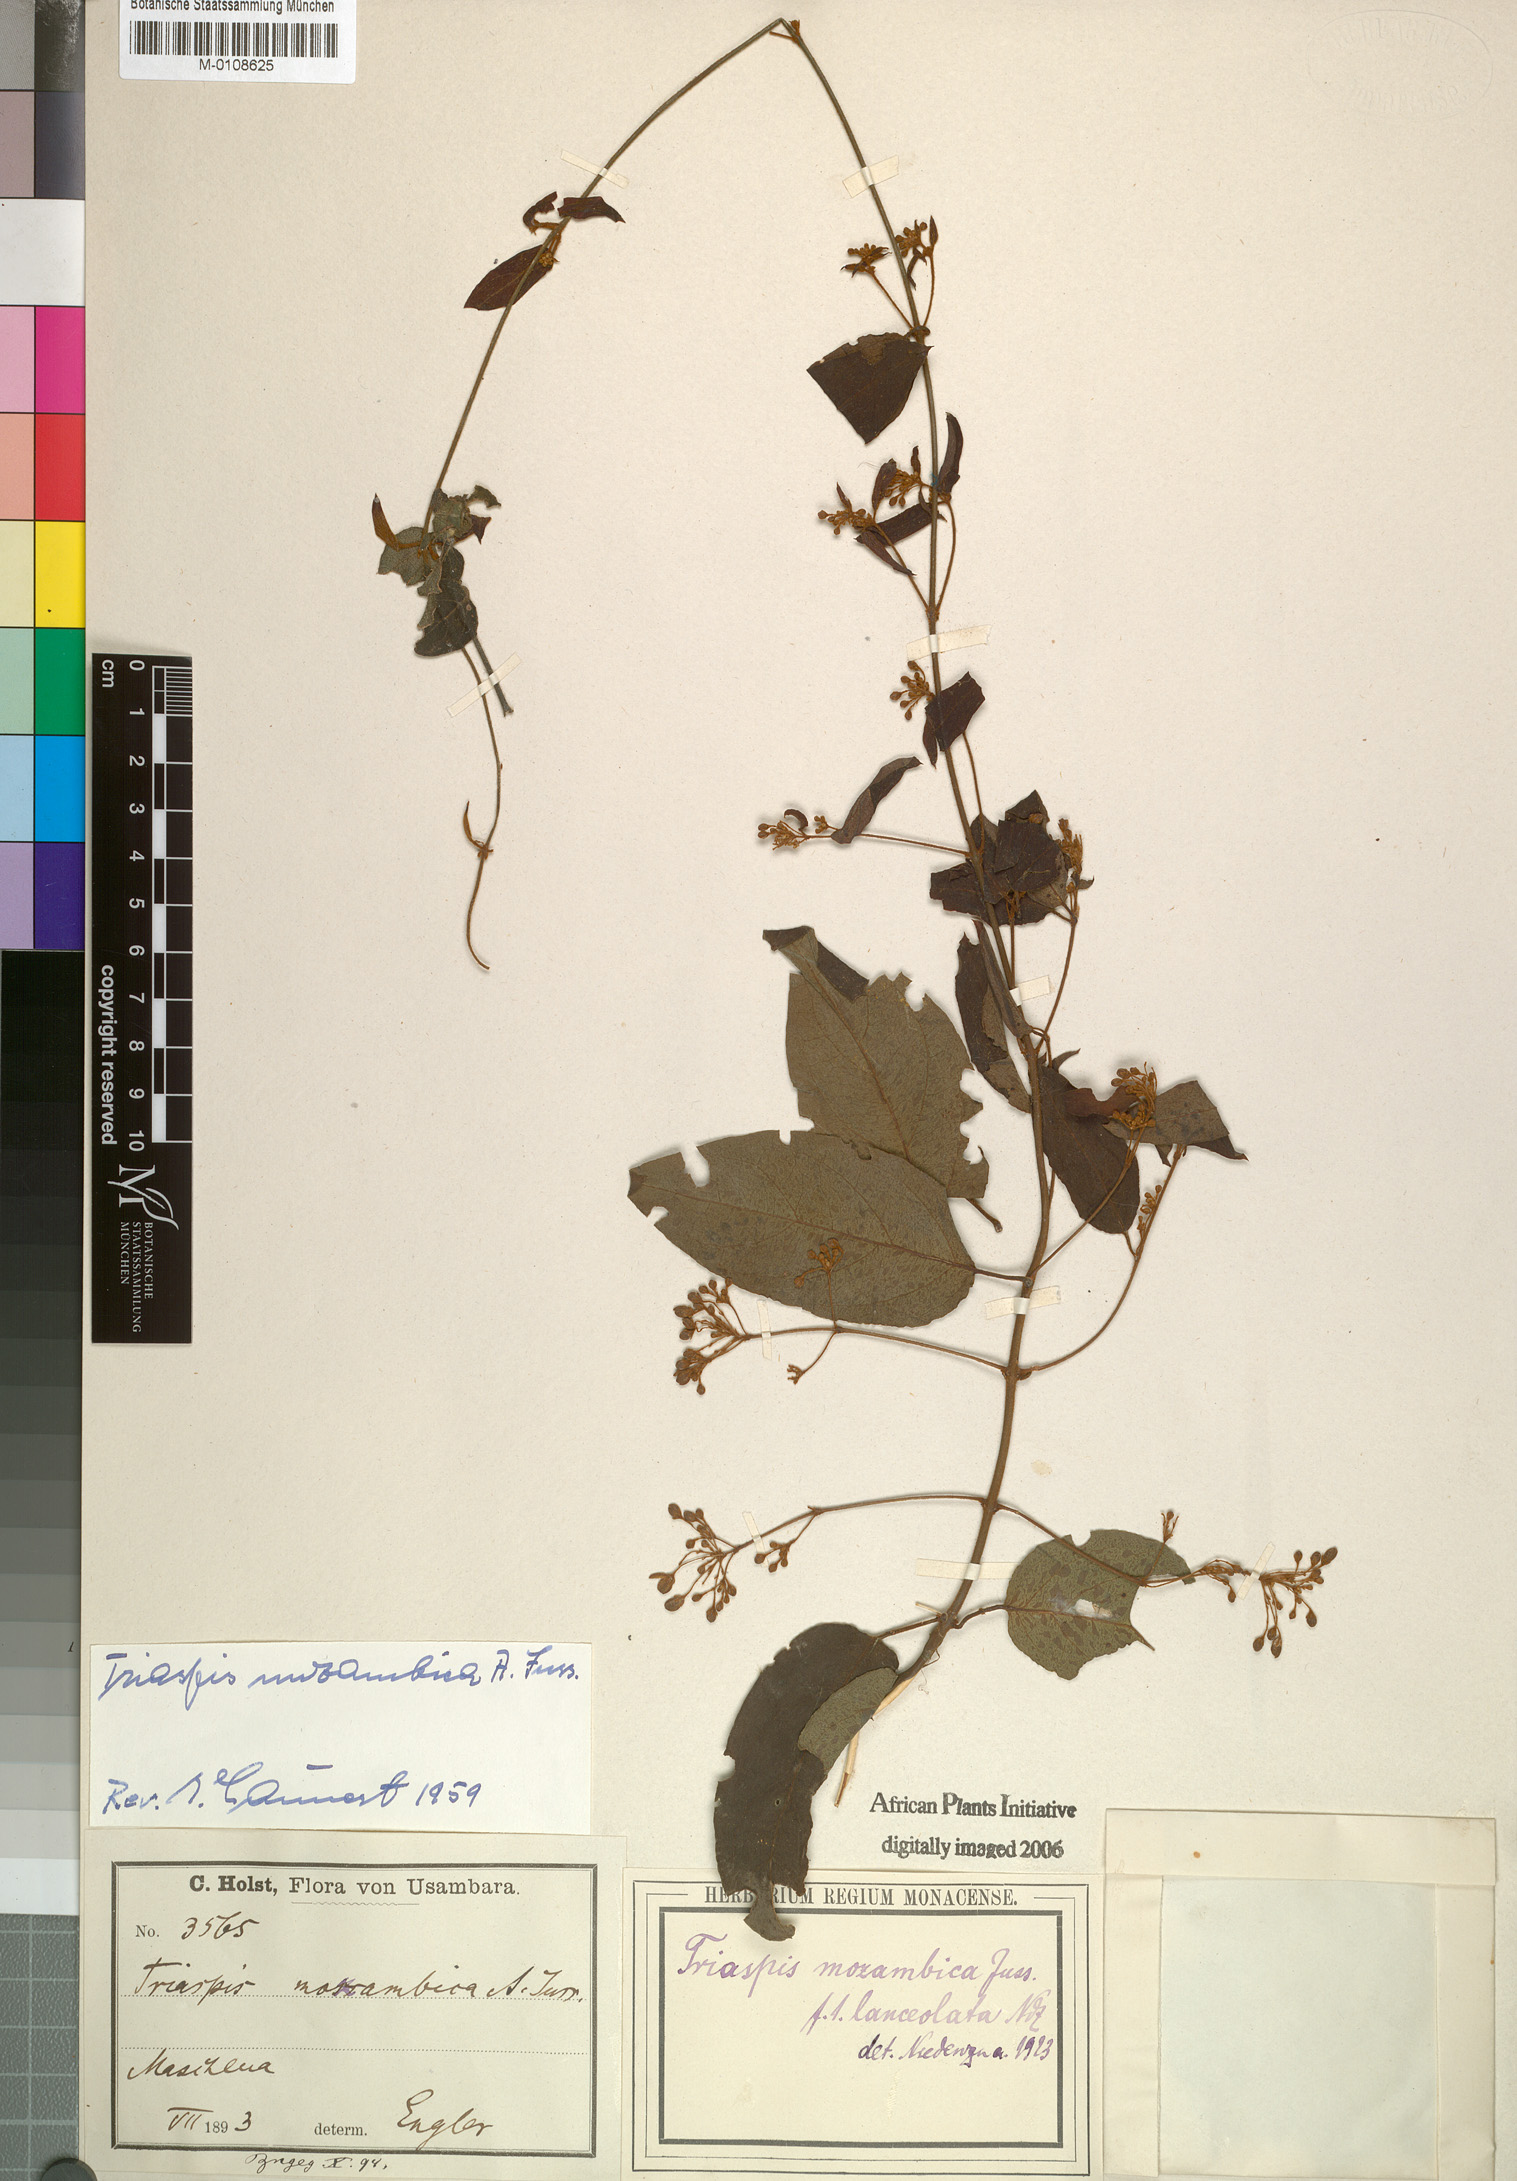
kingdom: Plantae
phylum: Tracheophyta
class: Magnoliopsida
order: Malpighiales
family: Malpighiaceae
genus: Triaspis
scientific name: Triaspis mozambica
